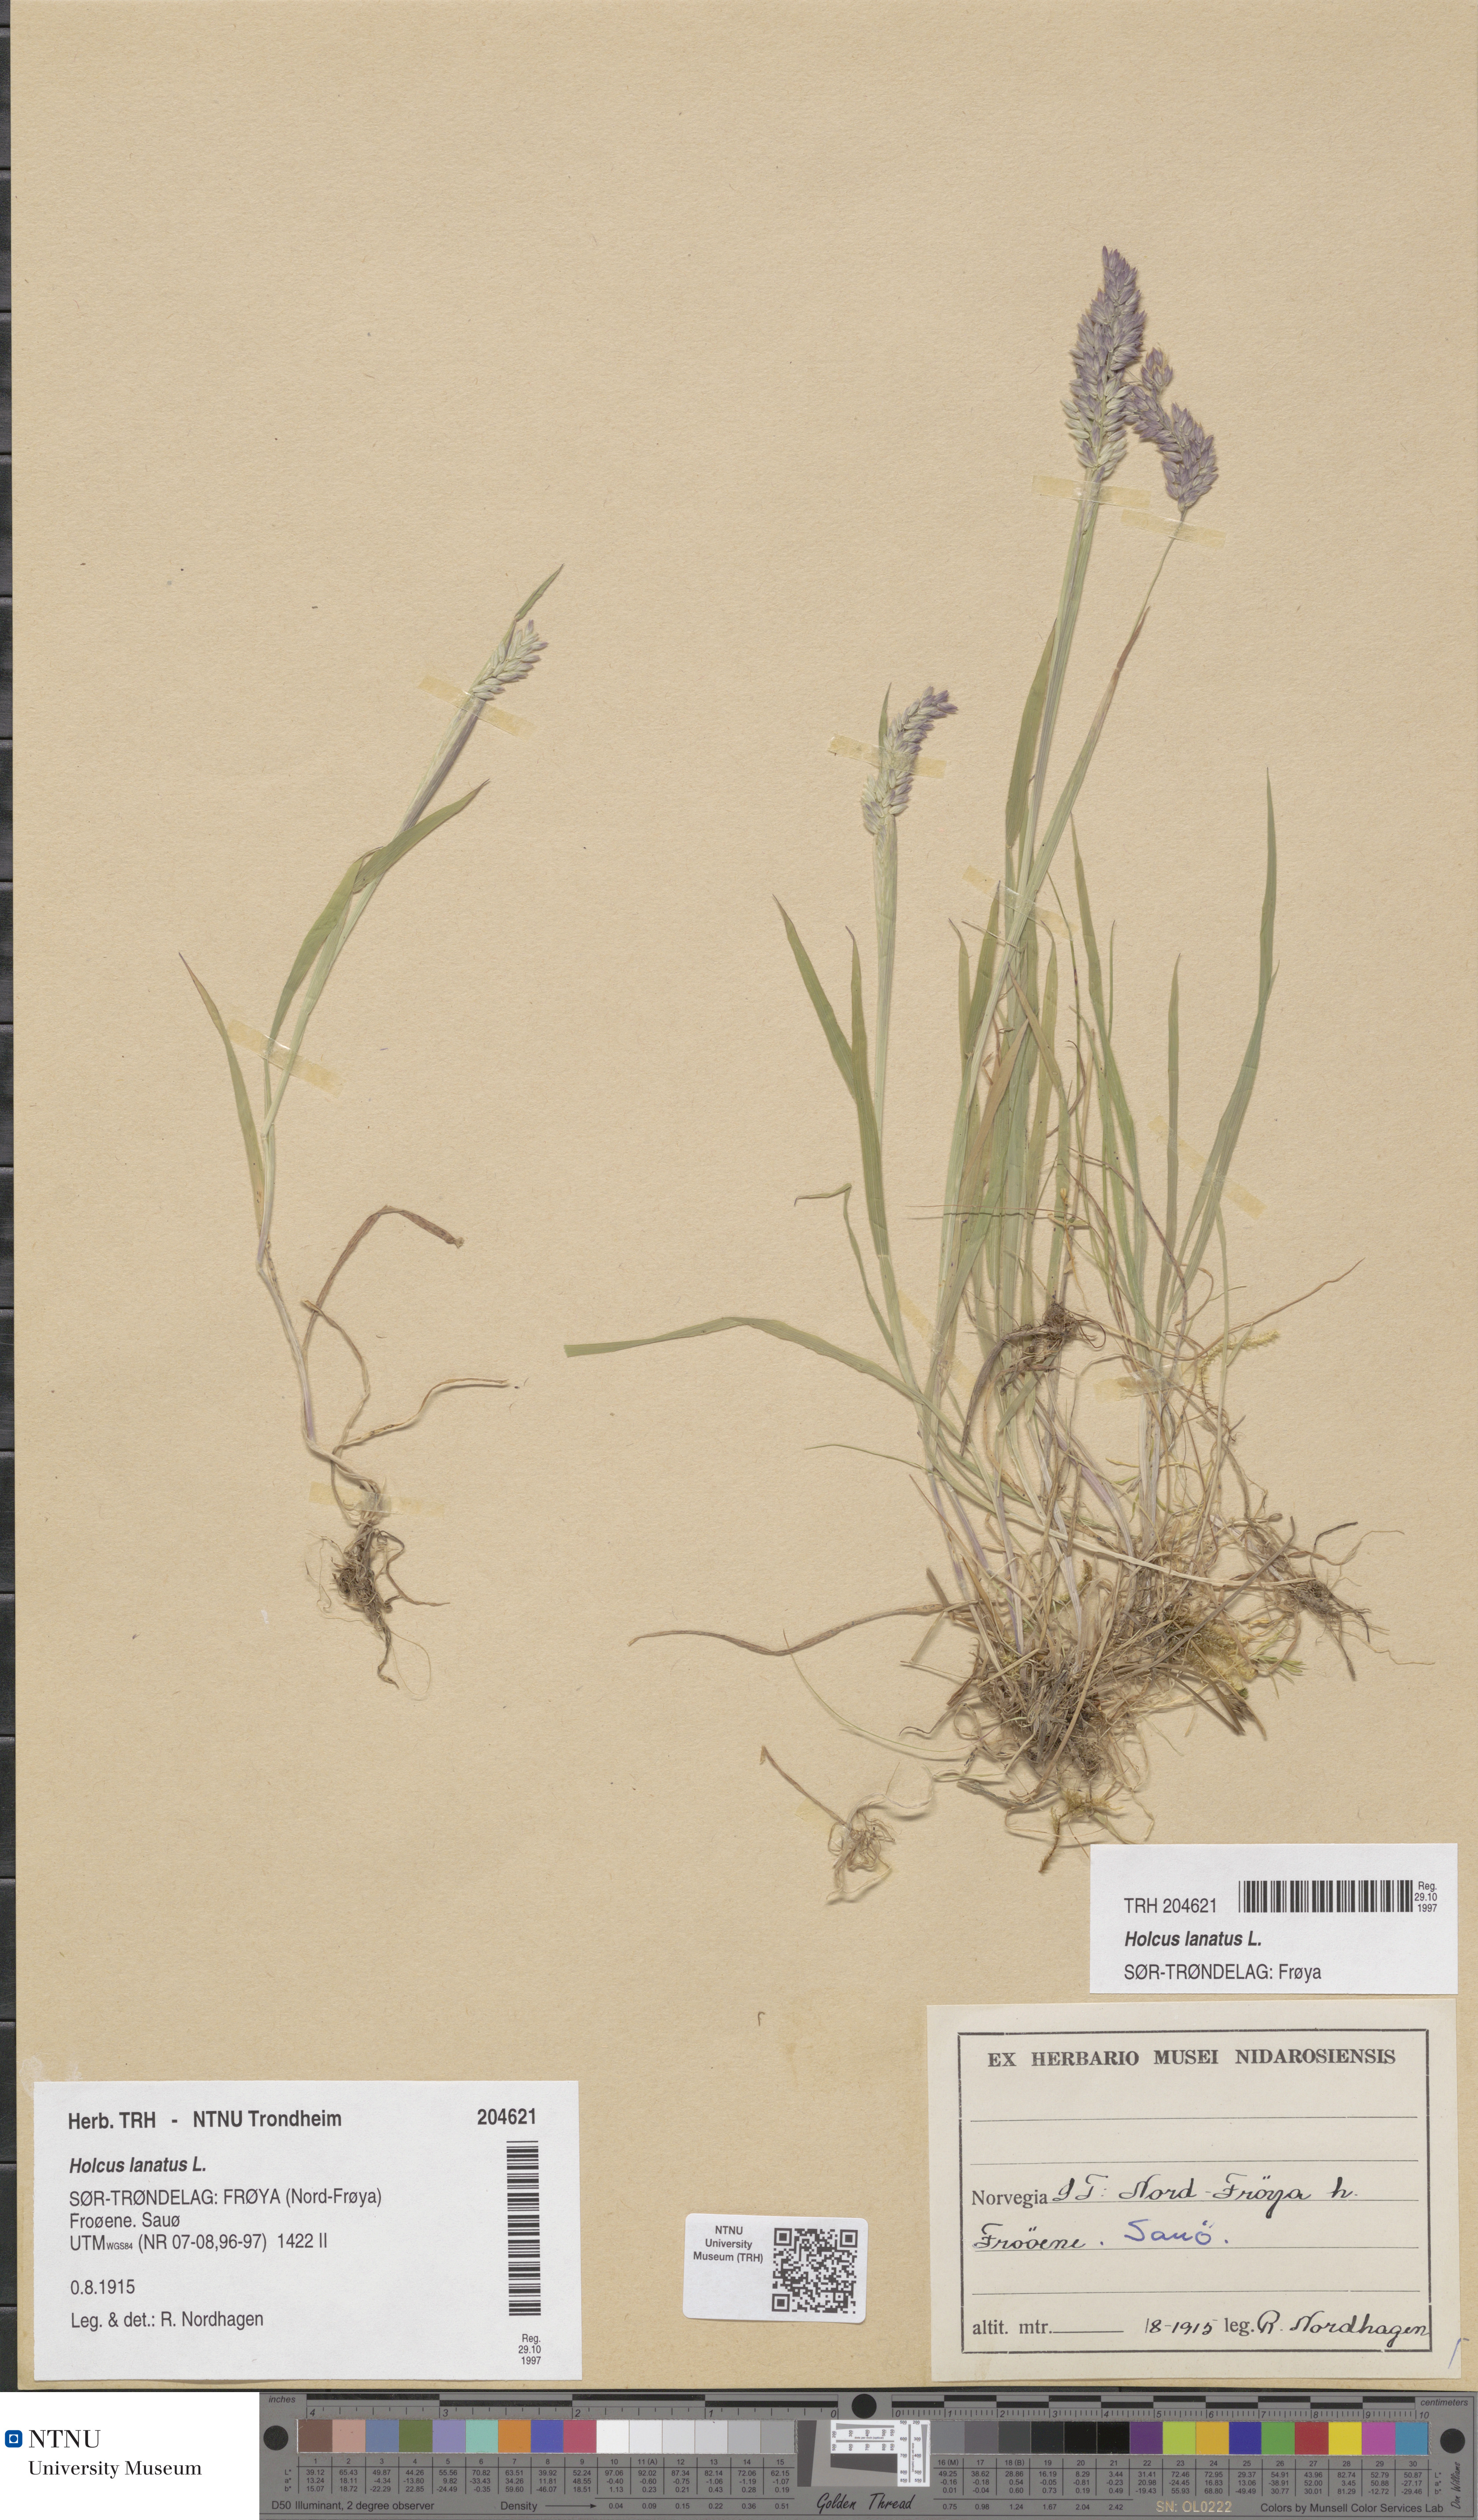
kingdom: Plantae
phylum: Tracheophyta
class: Liliopsida
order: Poales
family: Poaceae
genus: Holcus
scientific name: Holcus lanatus
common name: Yorkshire-fog
